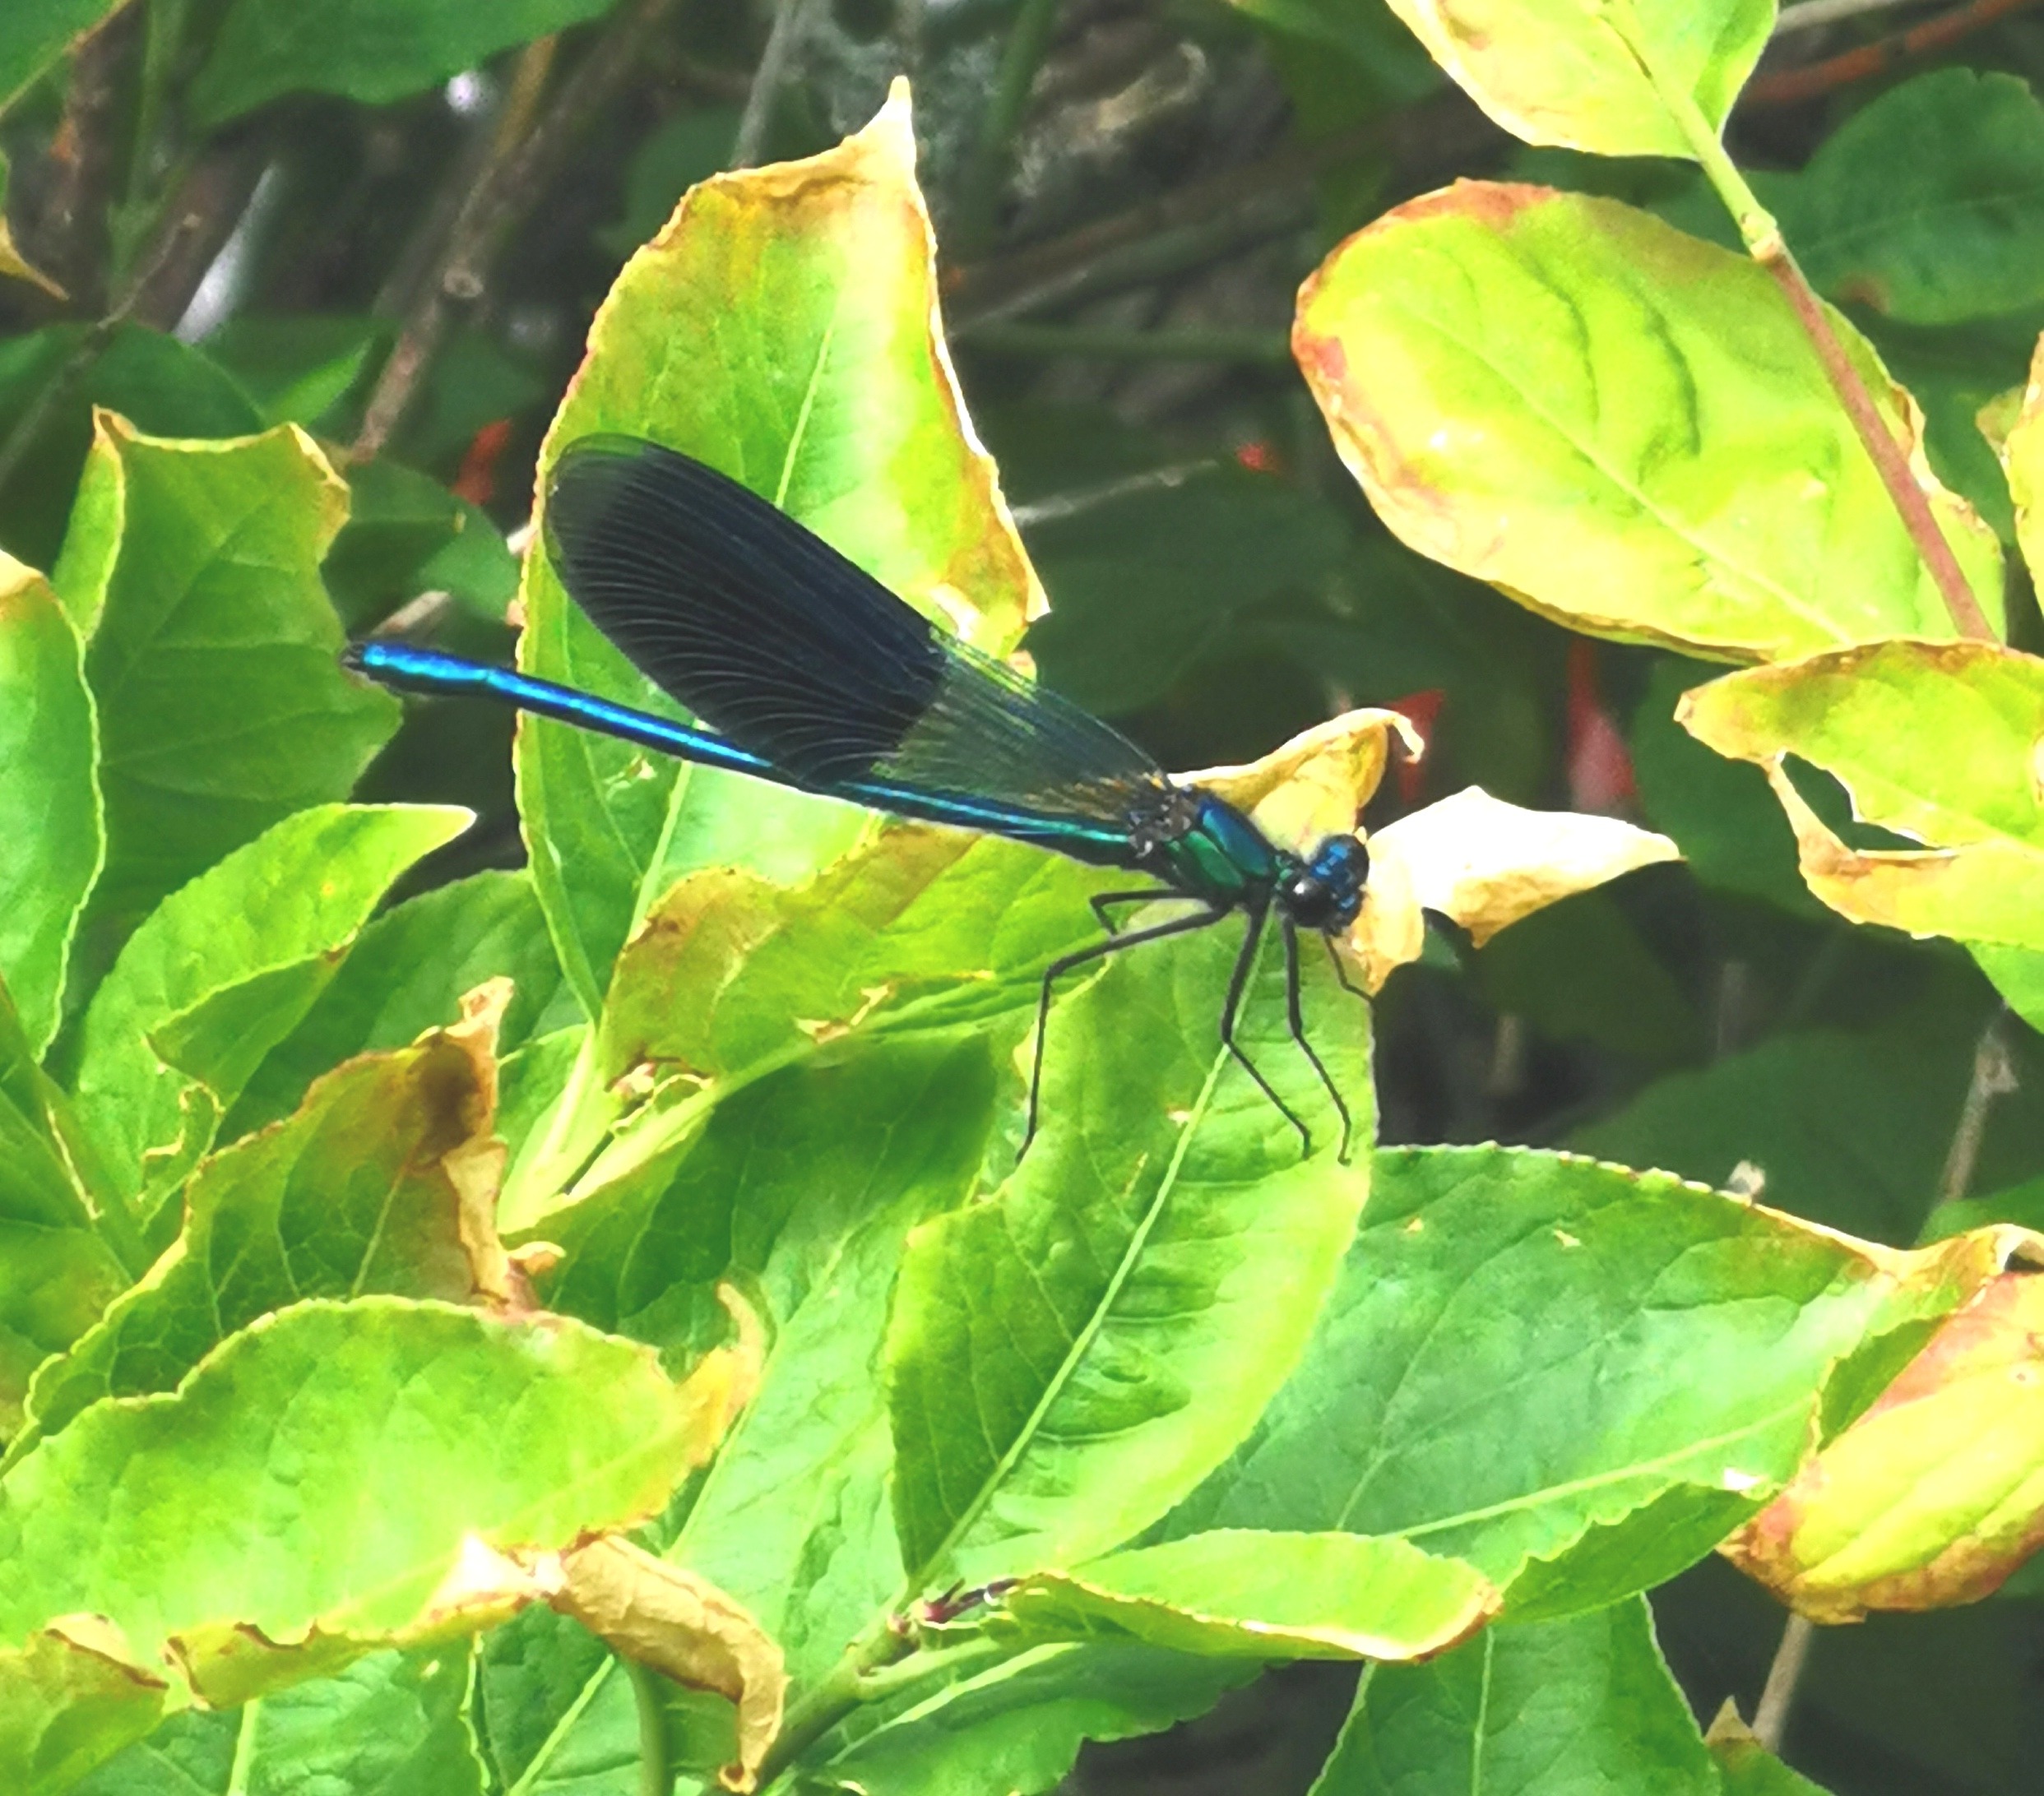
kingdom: Animalia
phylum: Arthropoda
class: Insecta
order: Odonata
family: Calopterygidae
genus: Calopteryx
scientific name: Calopteryx splendens
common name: Blåbåndet pragtvandnymfe
